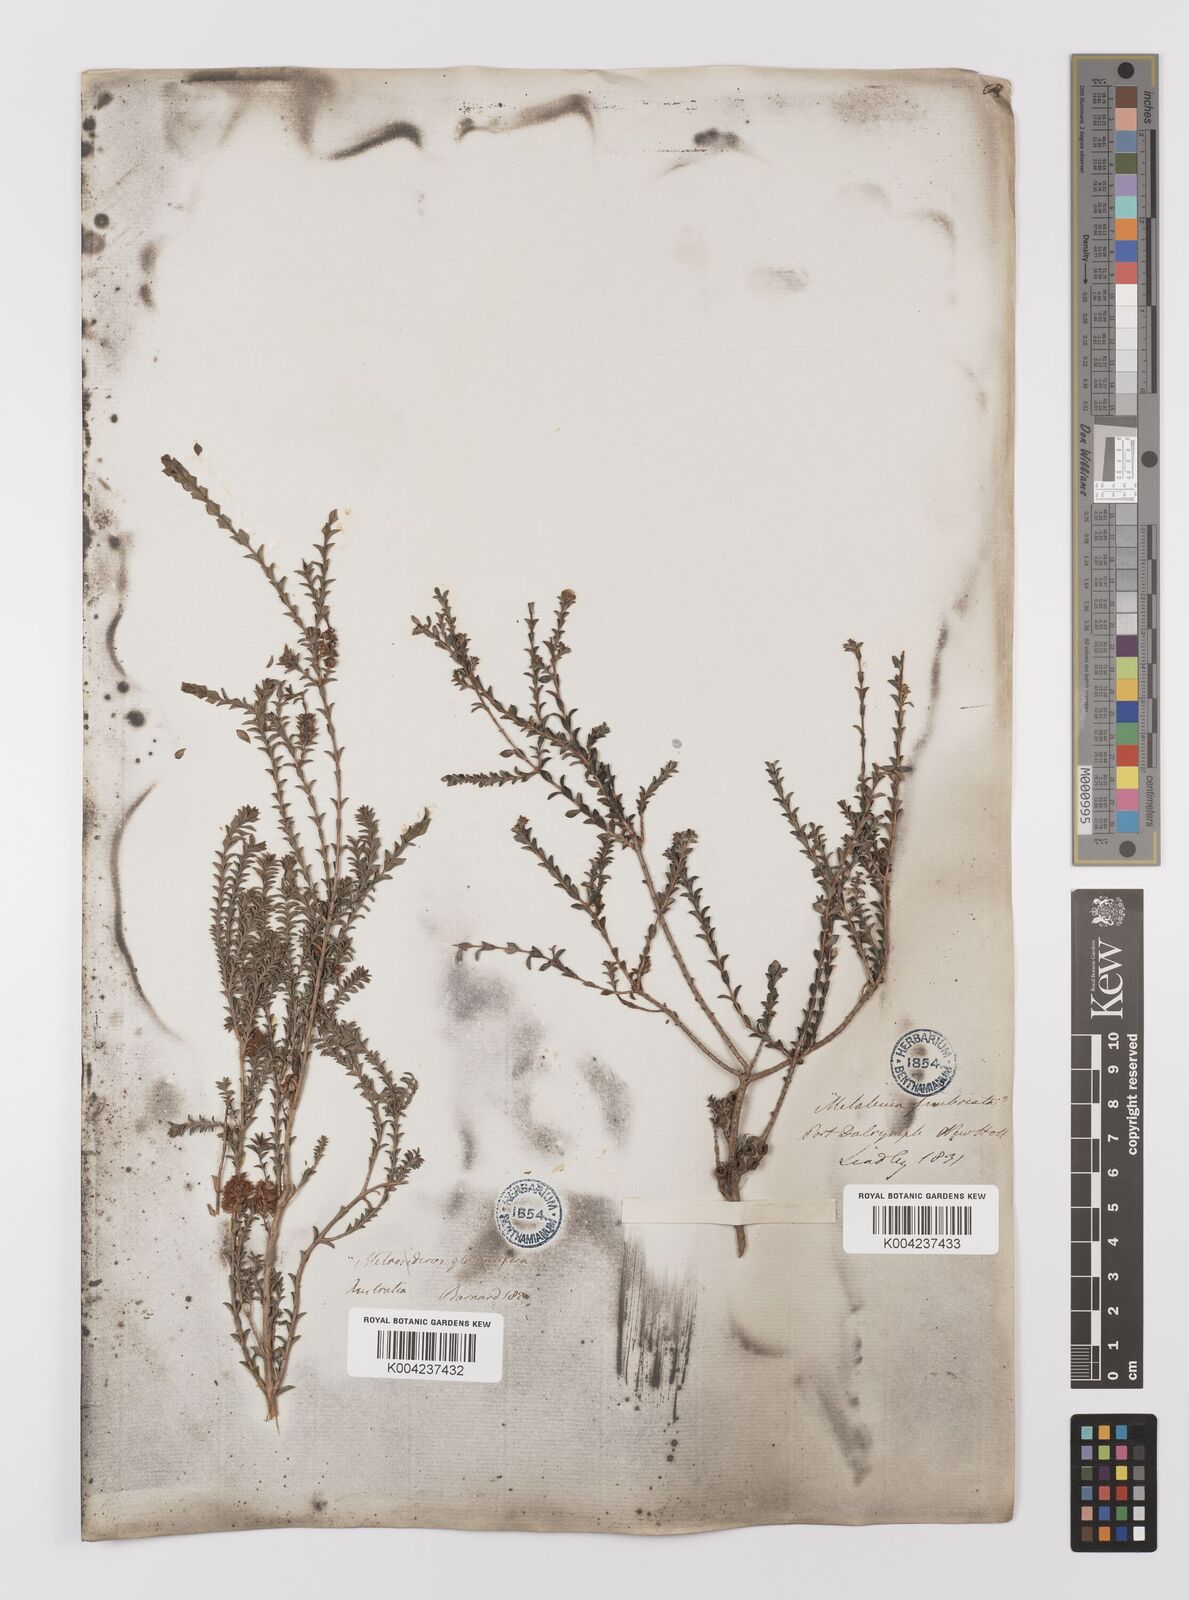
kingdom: Plantae
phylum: Tracheophyta
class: Magnoliopsida
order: Myrtales
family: Myrtaceae
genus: Melaleuca
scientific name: Melaleuca
